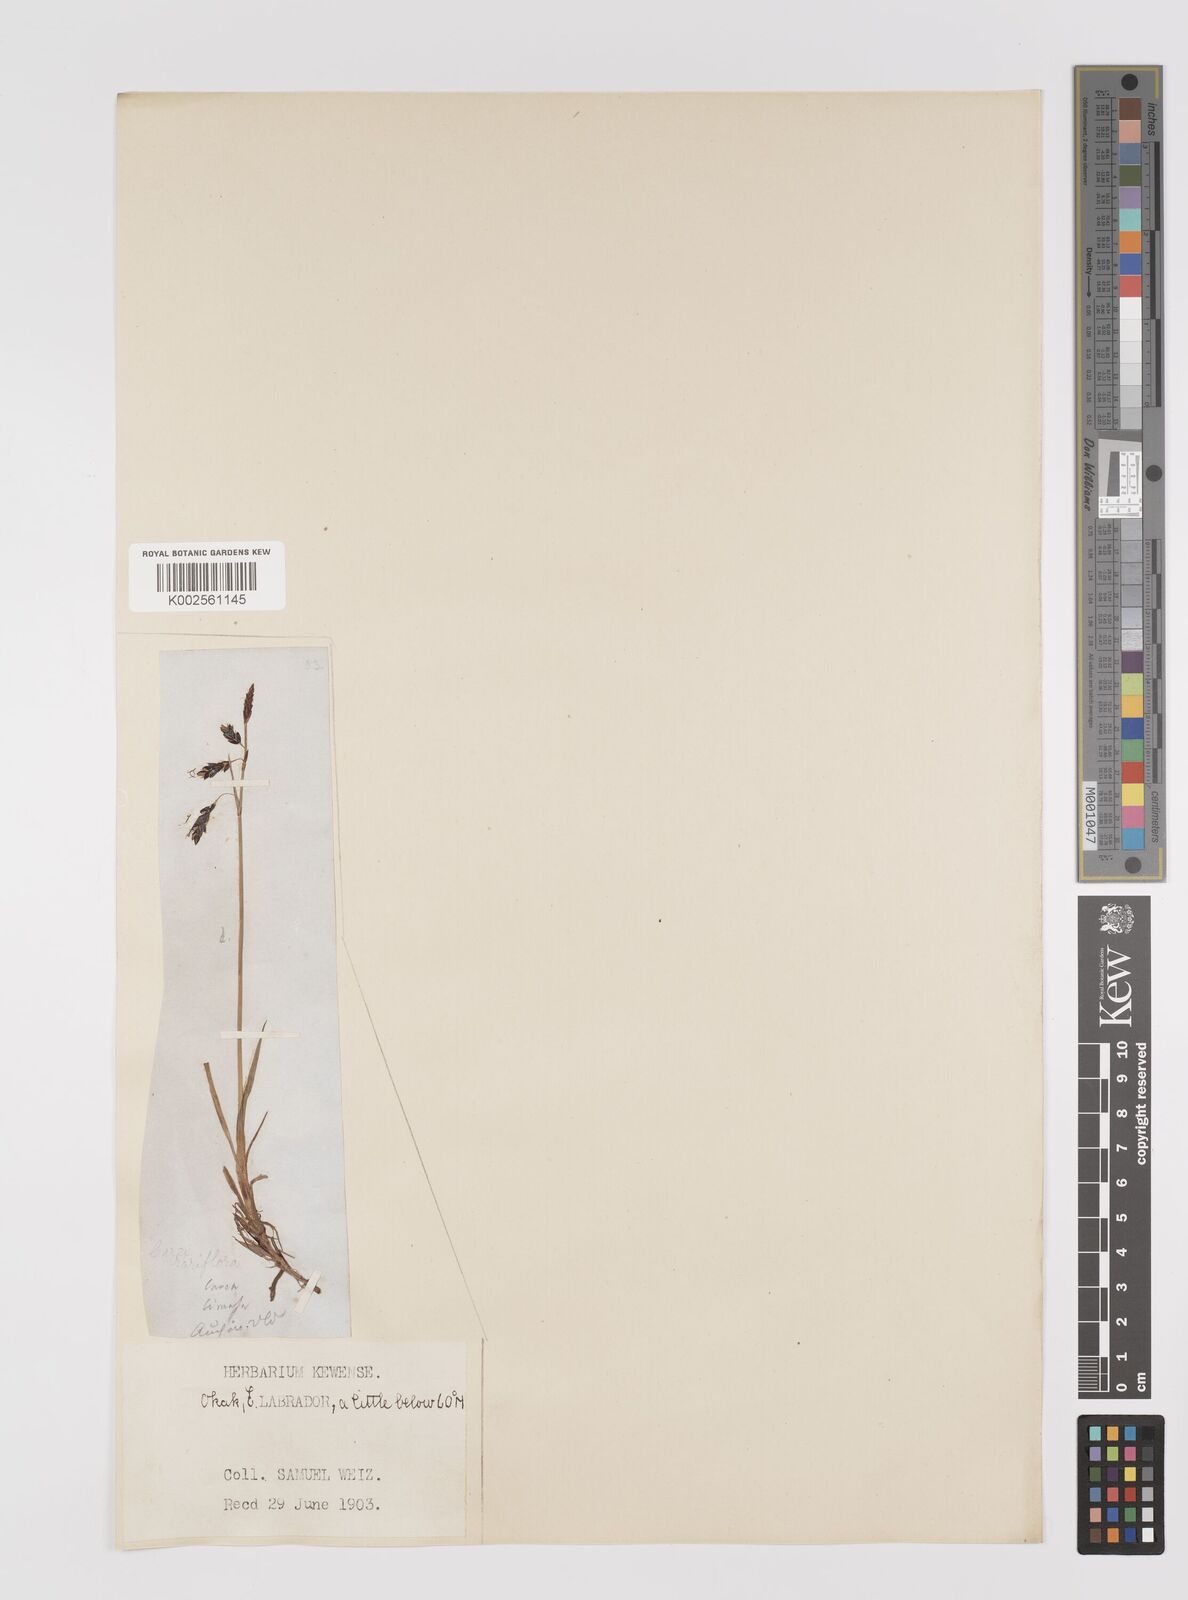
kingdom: Plantae
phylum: Tracheophyta
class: Liliopsida
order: Poales
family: Cyperaceae
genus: Carex
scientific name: Carex rariflora
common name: Loose-flowered alpine sedge
